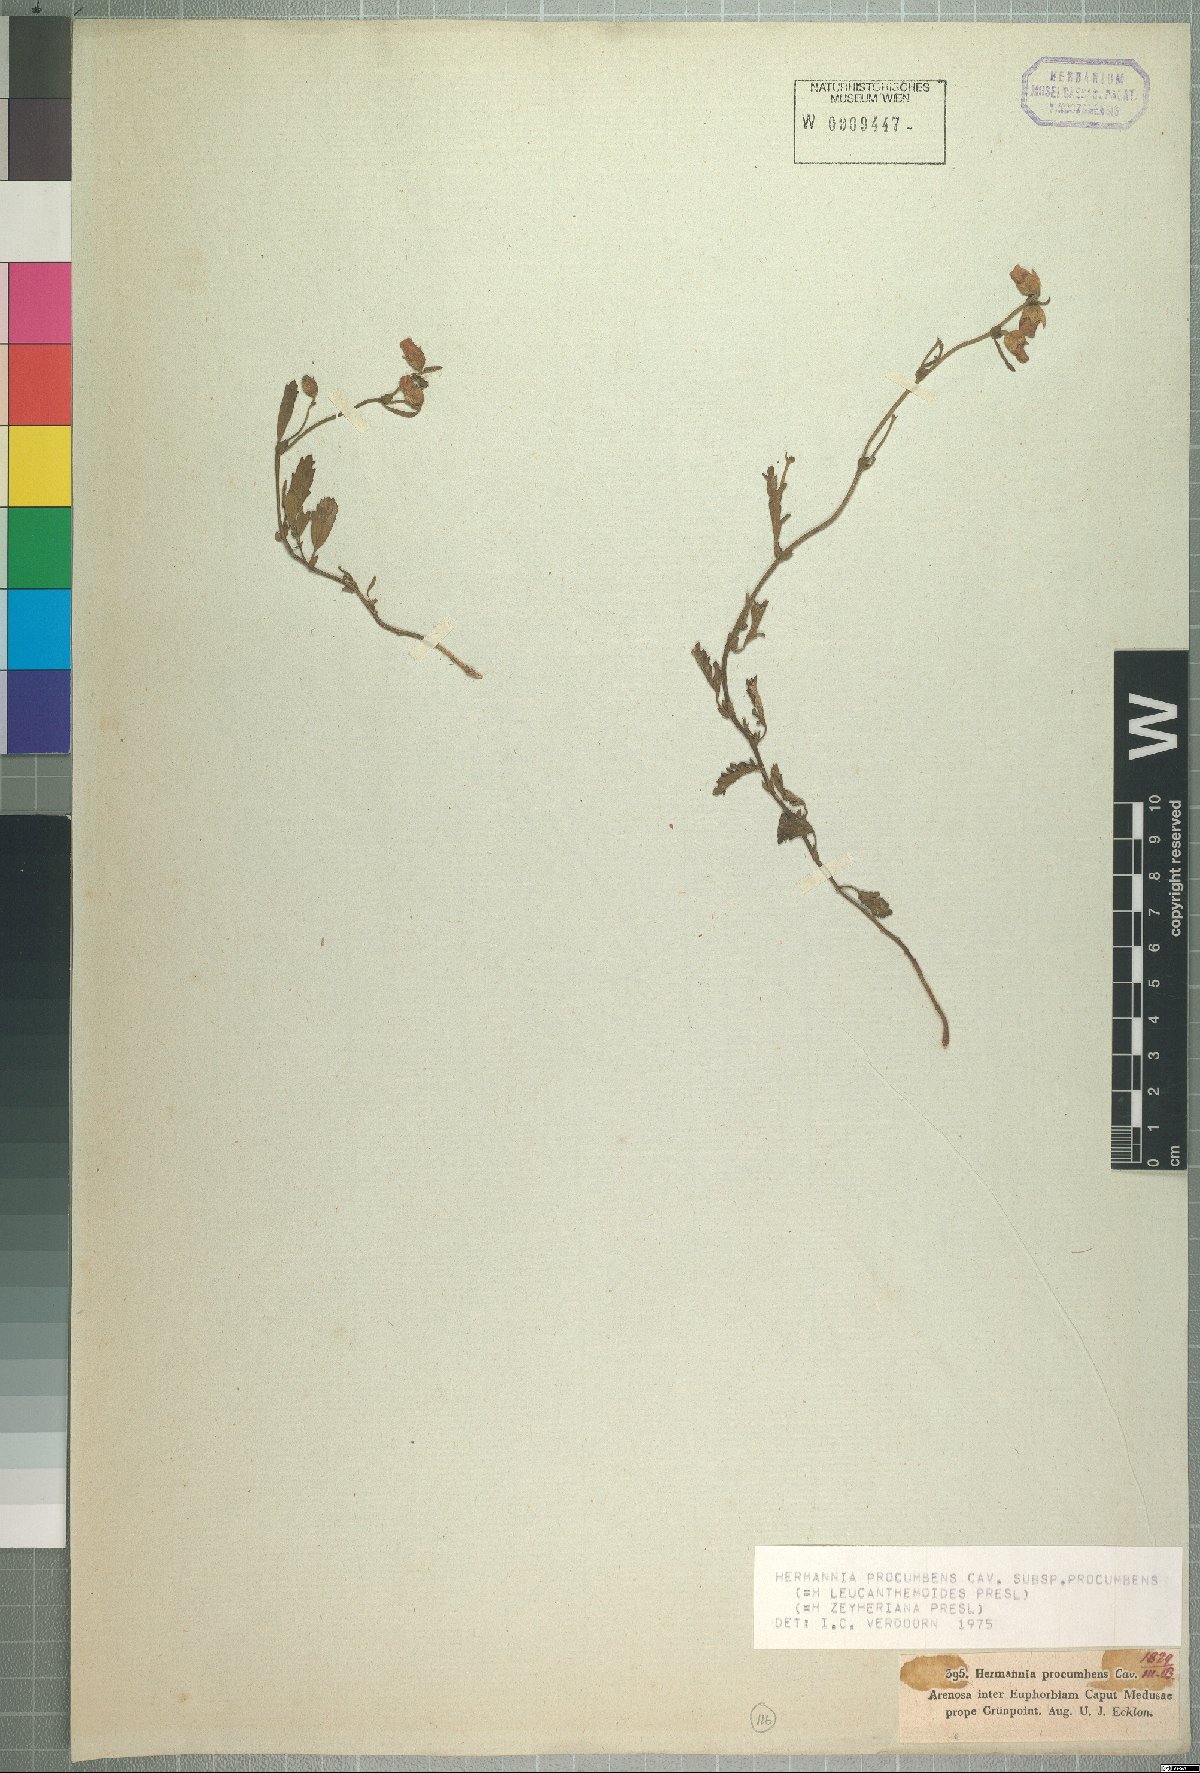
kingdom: Plantae
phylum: Tracheophyta
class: Magnoliopsida
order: Malvales
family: Malvaceae
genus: Hermannia
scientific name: Hermannia procumbens
